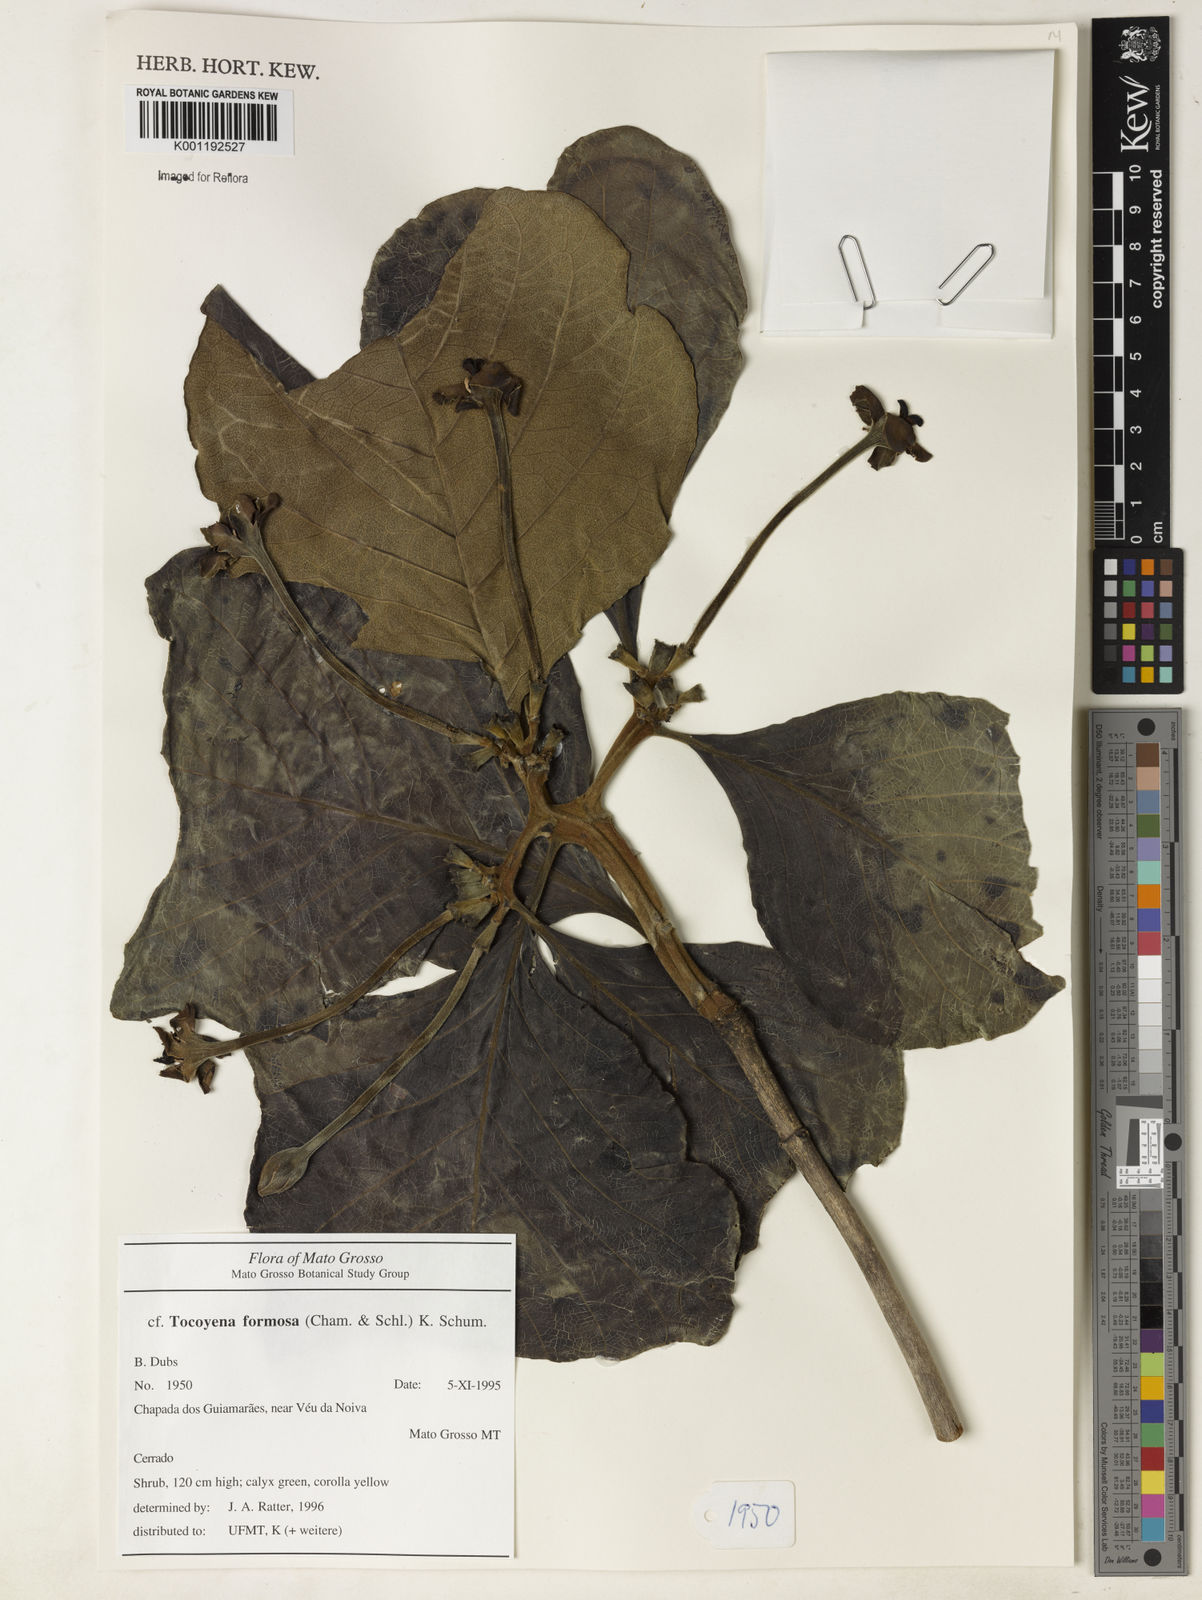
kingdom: Plantae
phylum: Tracheophyta
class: Magnoliopsida
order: Gentianales
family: Rubiaceae
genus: Tocoyena
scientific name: Tocoyena formosa
